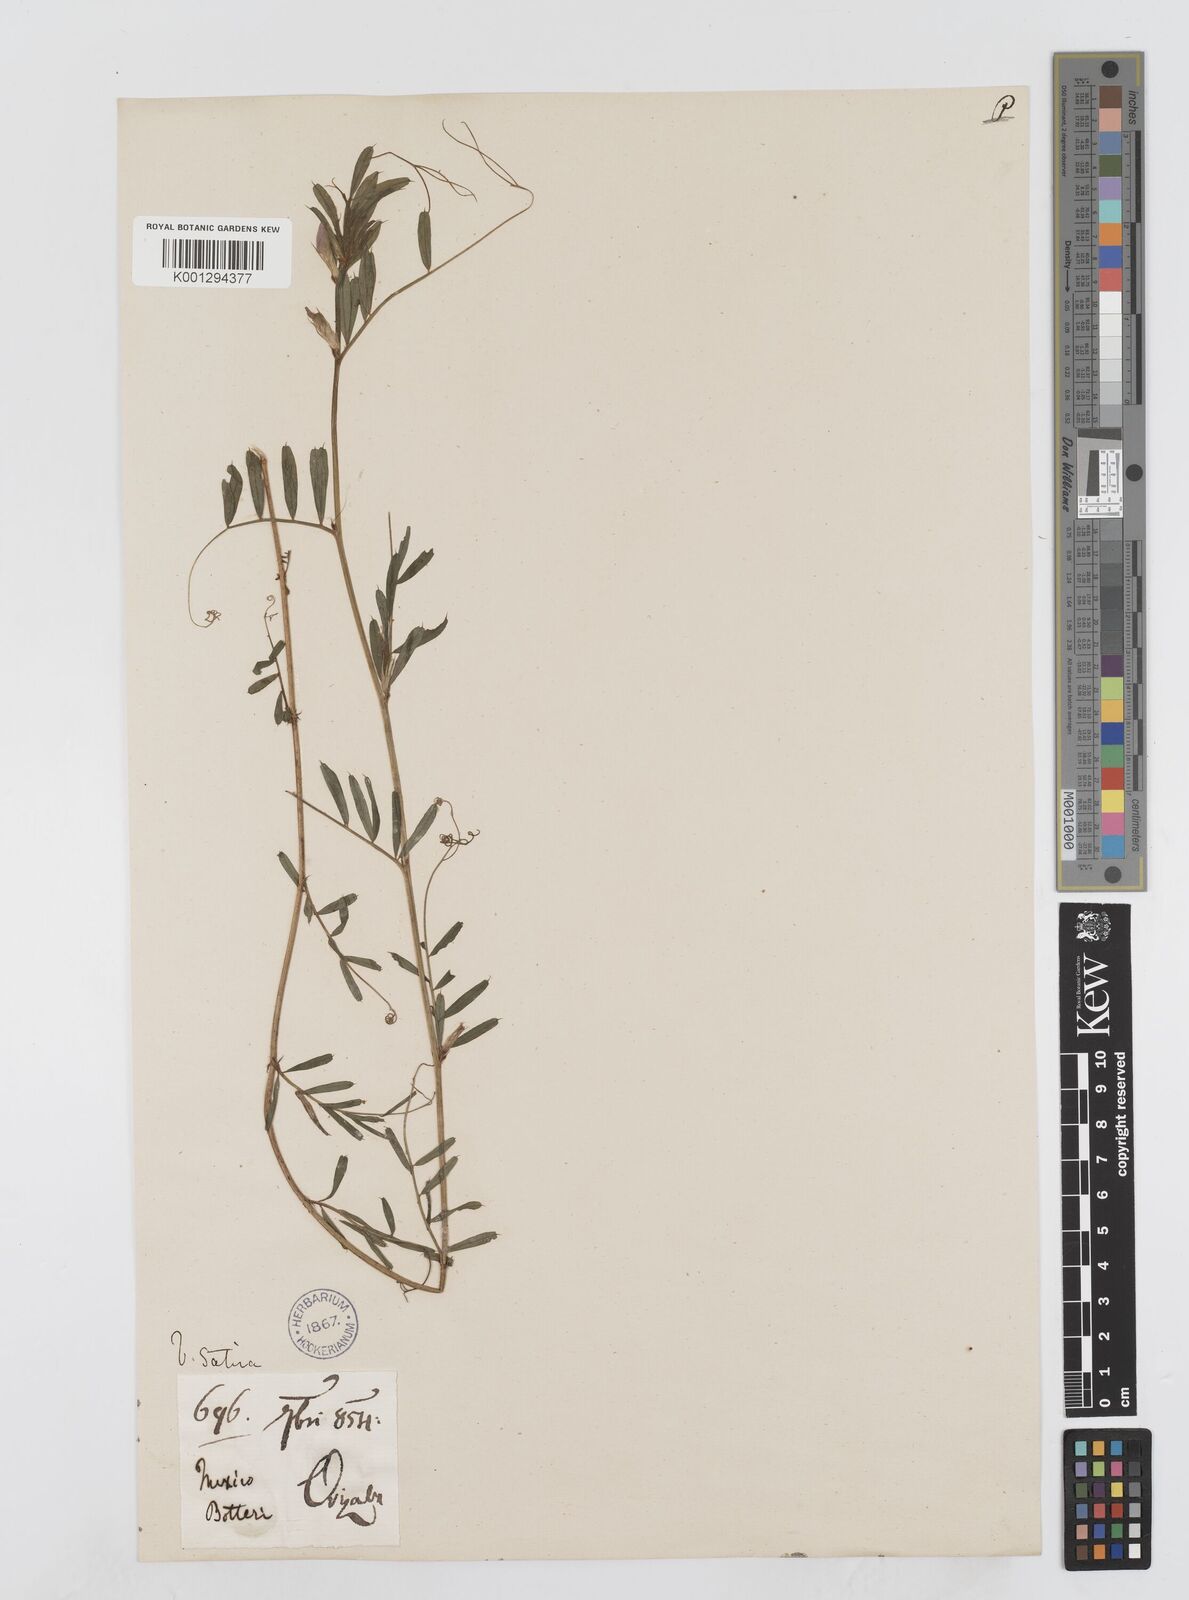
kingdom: Plantae
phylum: Tracheophyta
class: Magnoliopsida
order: Fabales
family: Fabaceae
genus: Vicia
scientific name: Vicia sativa
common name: Garden vetch
